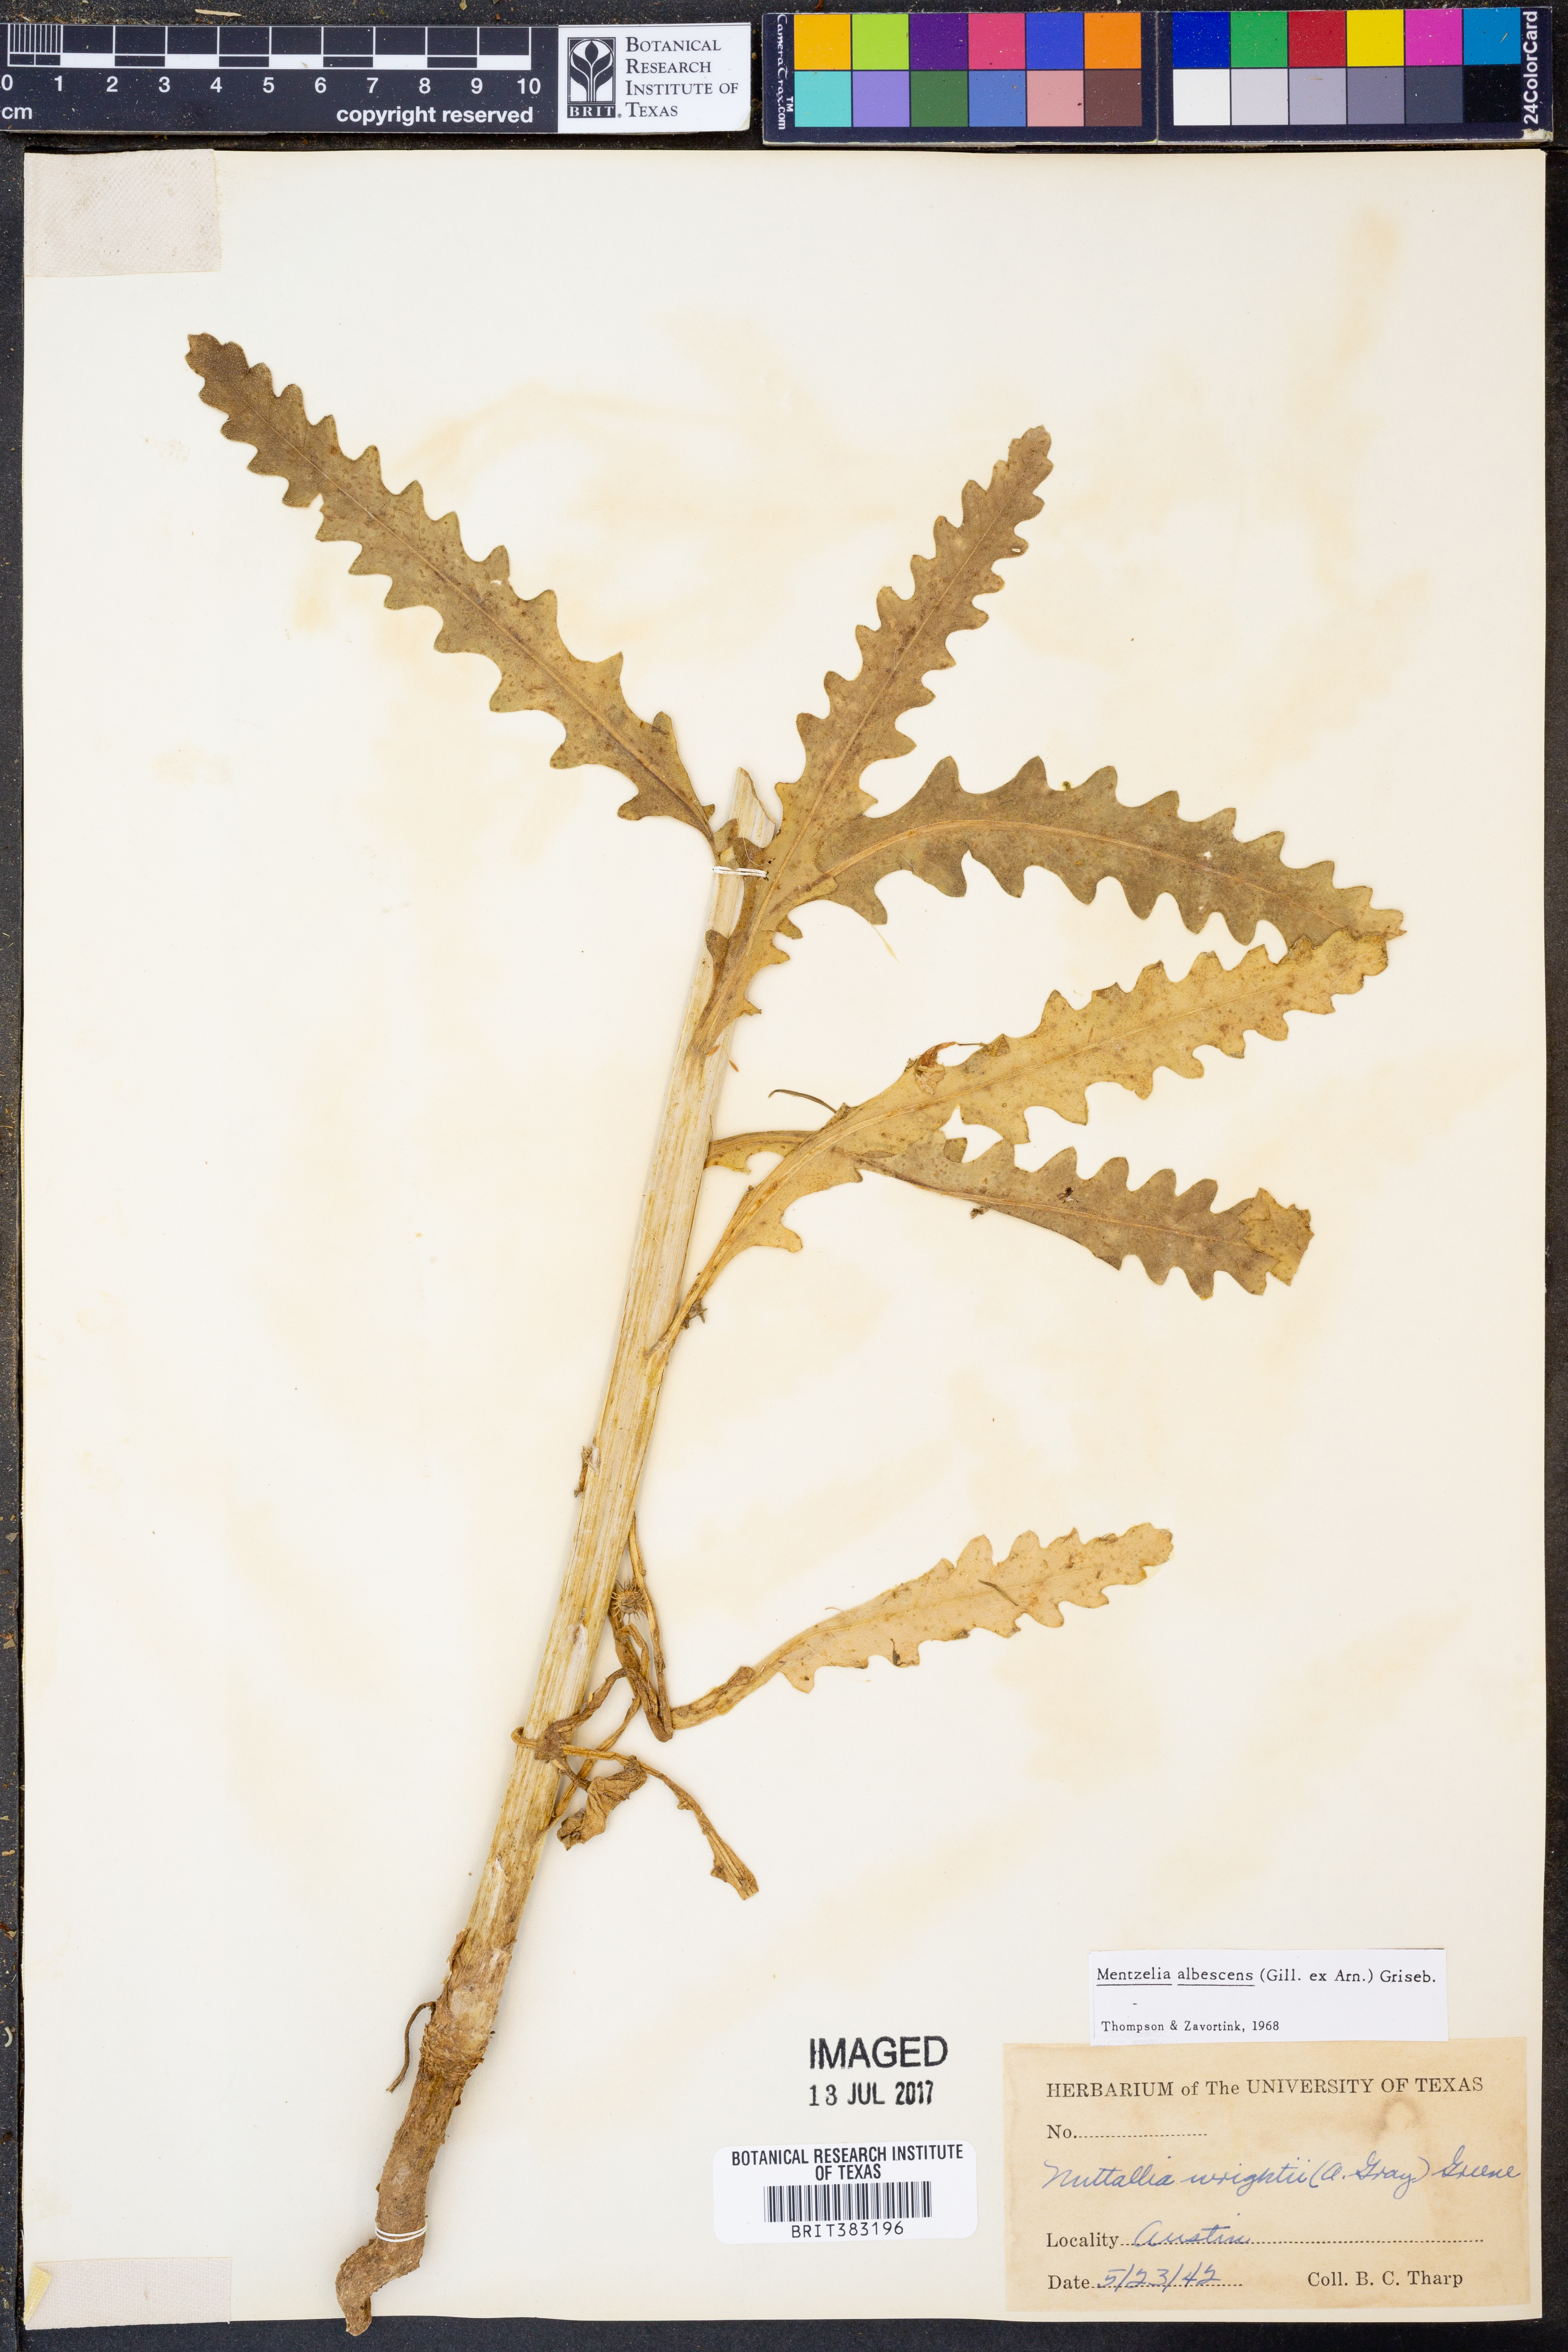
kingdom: Plantae
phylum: Tracheophyta
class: Magnoliopsida
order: Cornales
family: Loasaceae
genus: Mentzelia
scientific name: Mentzelia albescens
